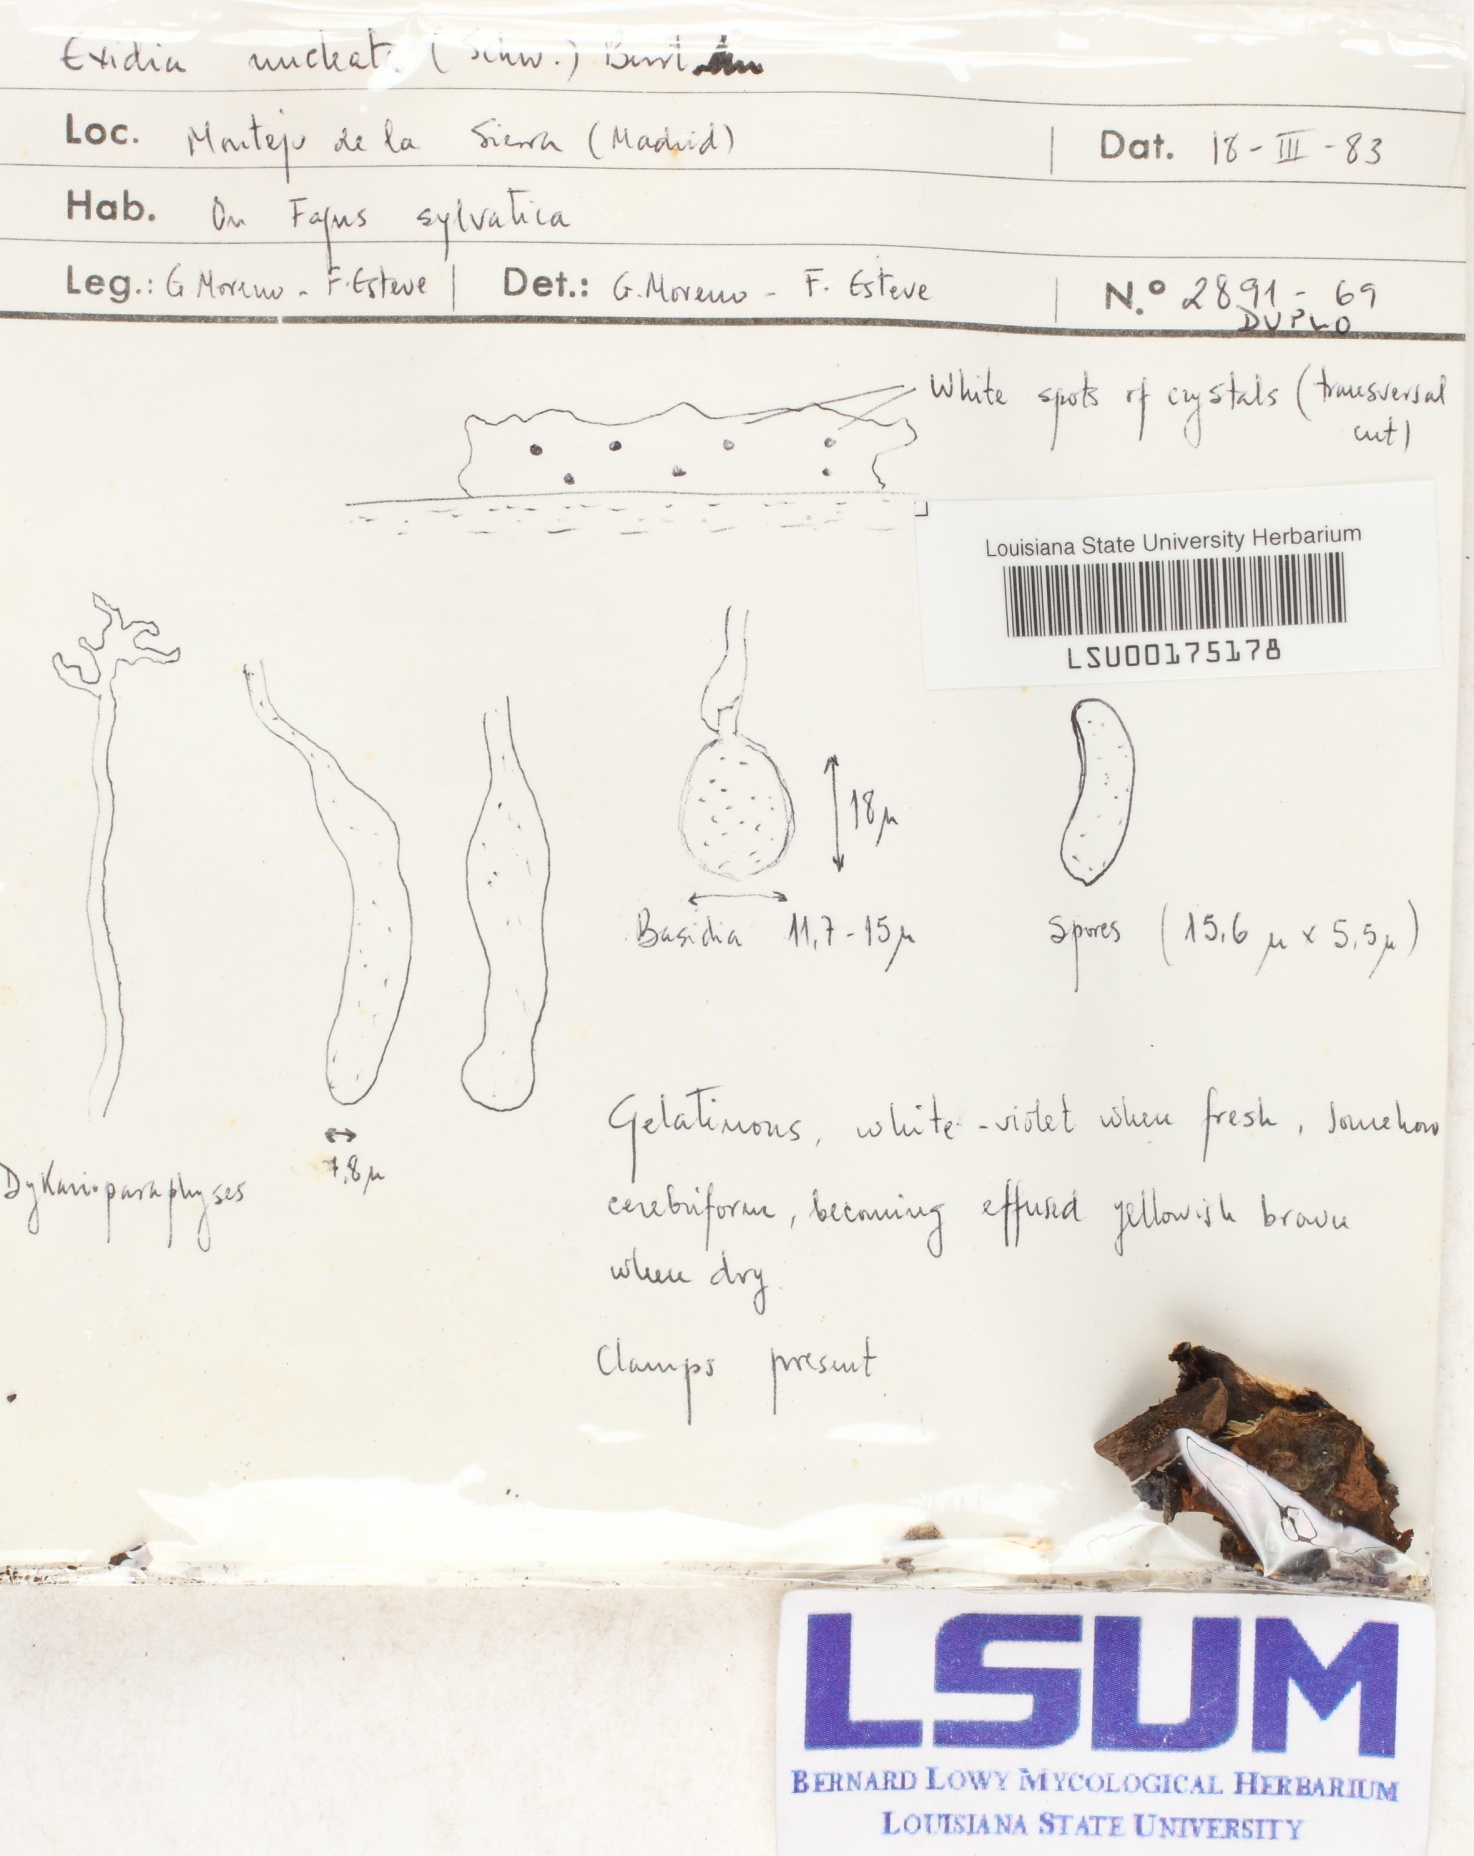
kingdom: Fungi
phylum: Basidiomycota
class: Agaricomycetes
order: Auriculariales
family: Hyaloriaceae
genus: Myxarium
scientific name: Myxarium nucleatum
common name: Crystal brain fungus
